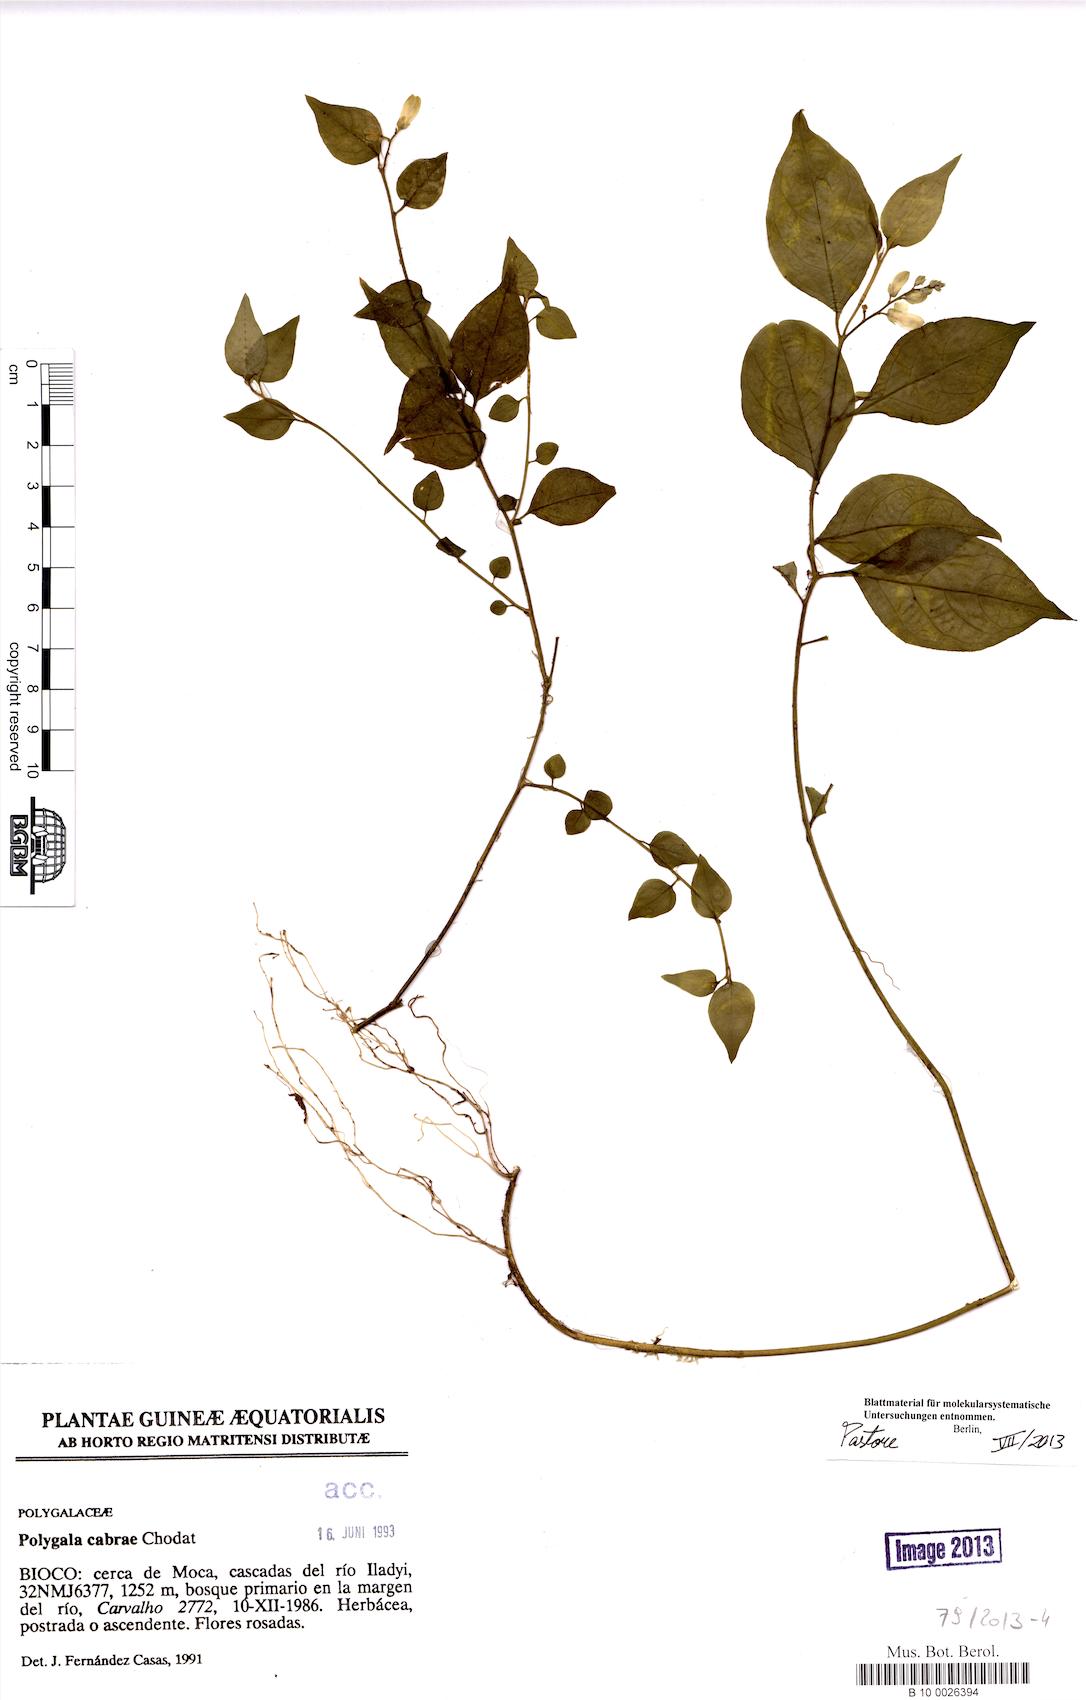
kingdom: Plantae
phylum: Tracheophyta
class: Magnoliopsida
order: Fabales
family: Polygalaceae
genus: Polygala
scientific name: Polygala cabrae
